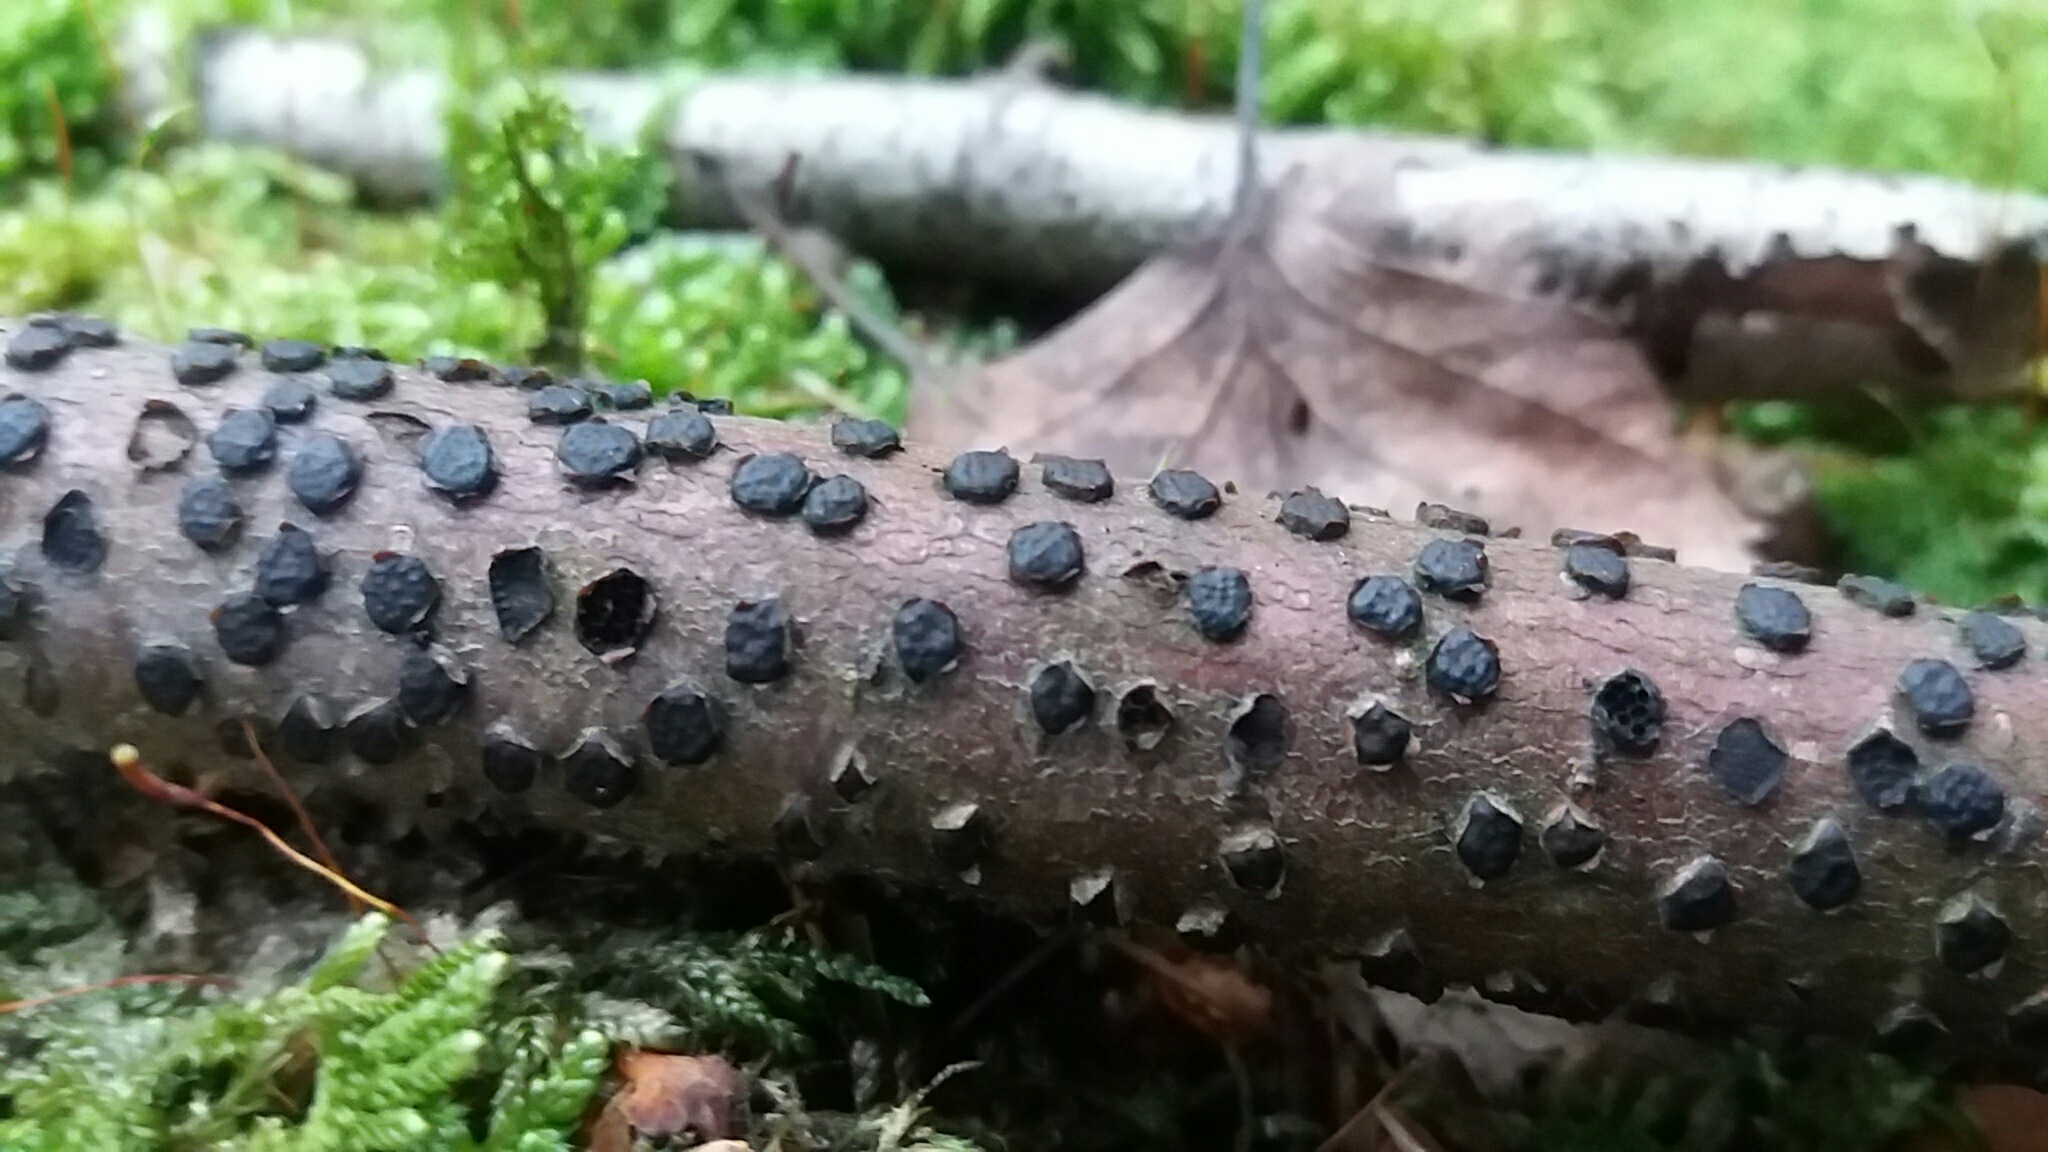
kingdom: Fungi
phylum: Ascomycota
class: Sordariomycetes
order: Xylariales
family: Diatrypaceae
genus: Diatrype
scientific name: Diatrype disciformis
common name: kant-kulskorpe
